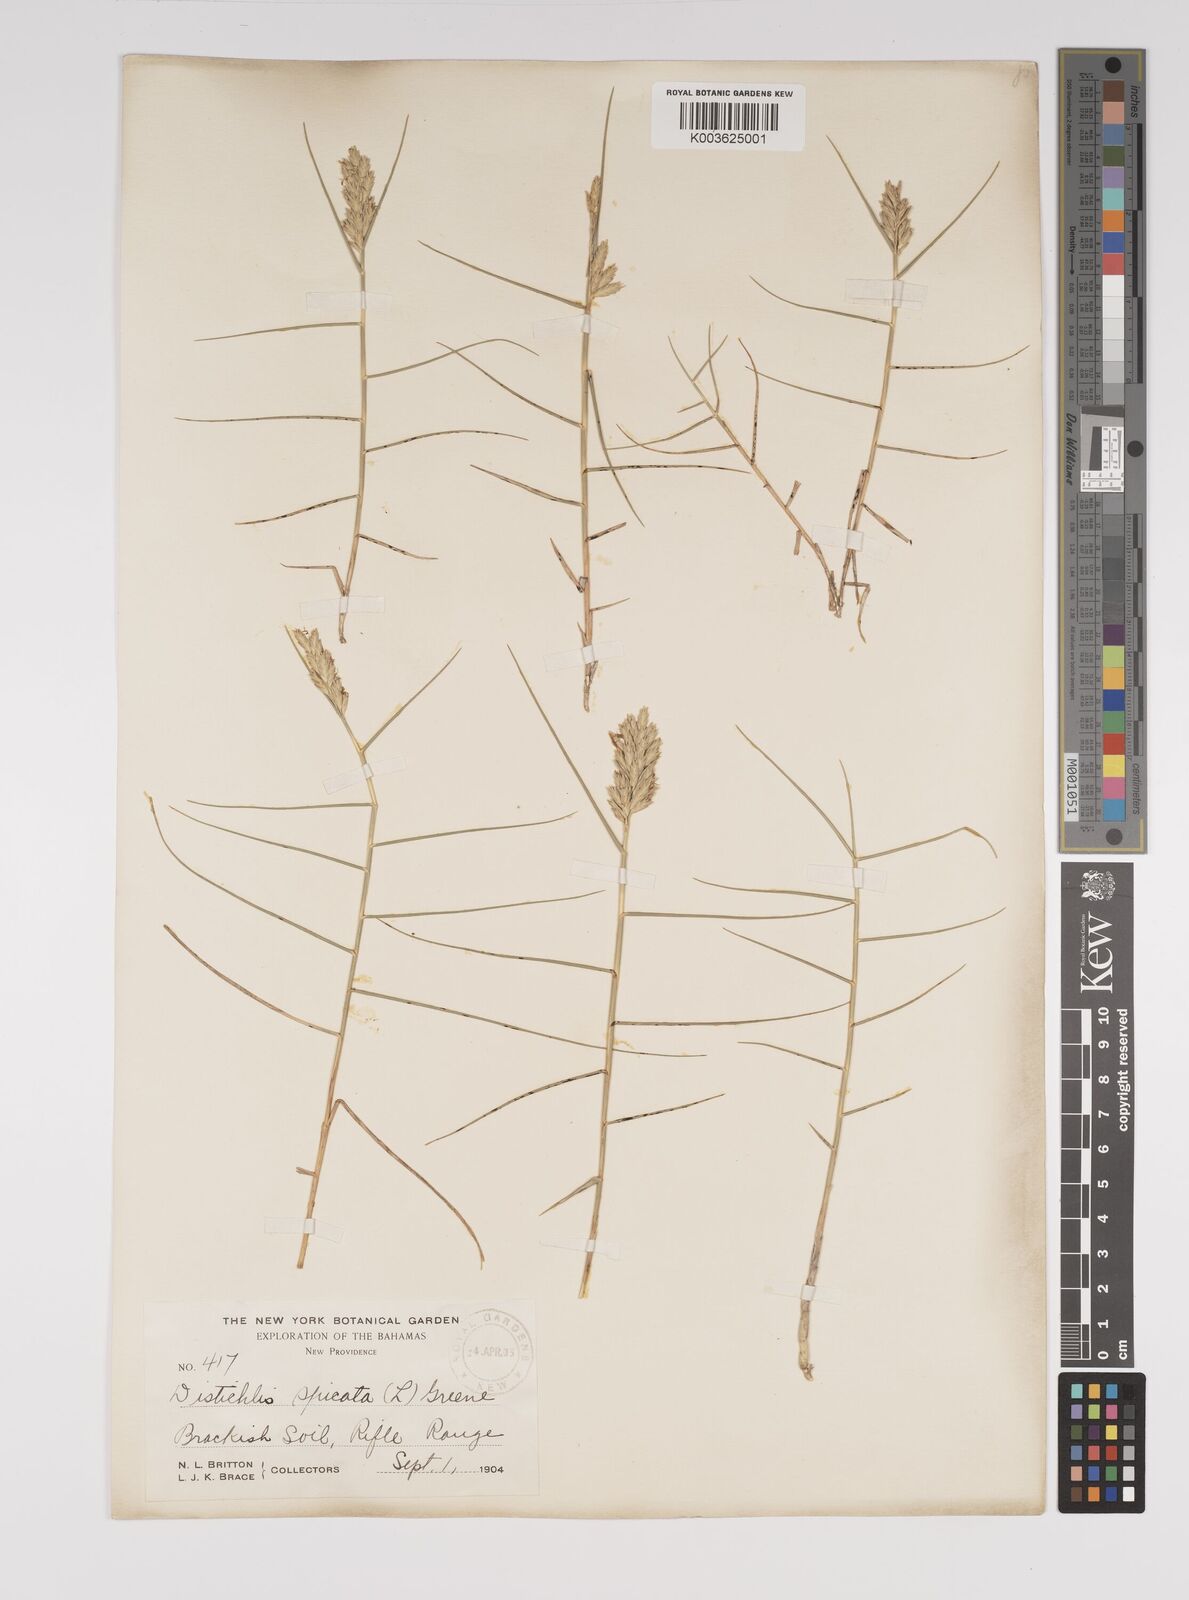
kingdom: Plantae
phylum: Tracheophyta
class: Liliopsida
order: Poales
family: Poaceae
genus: Distichlis
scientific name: Distichlis spicata
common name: Saltgrass
